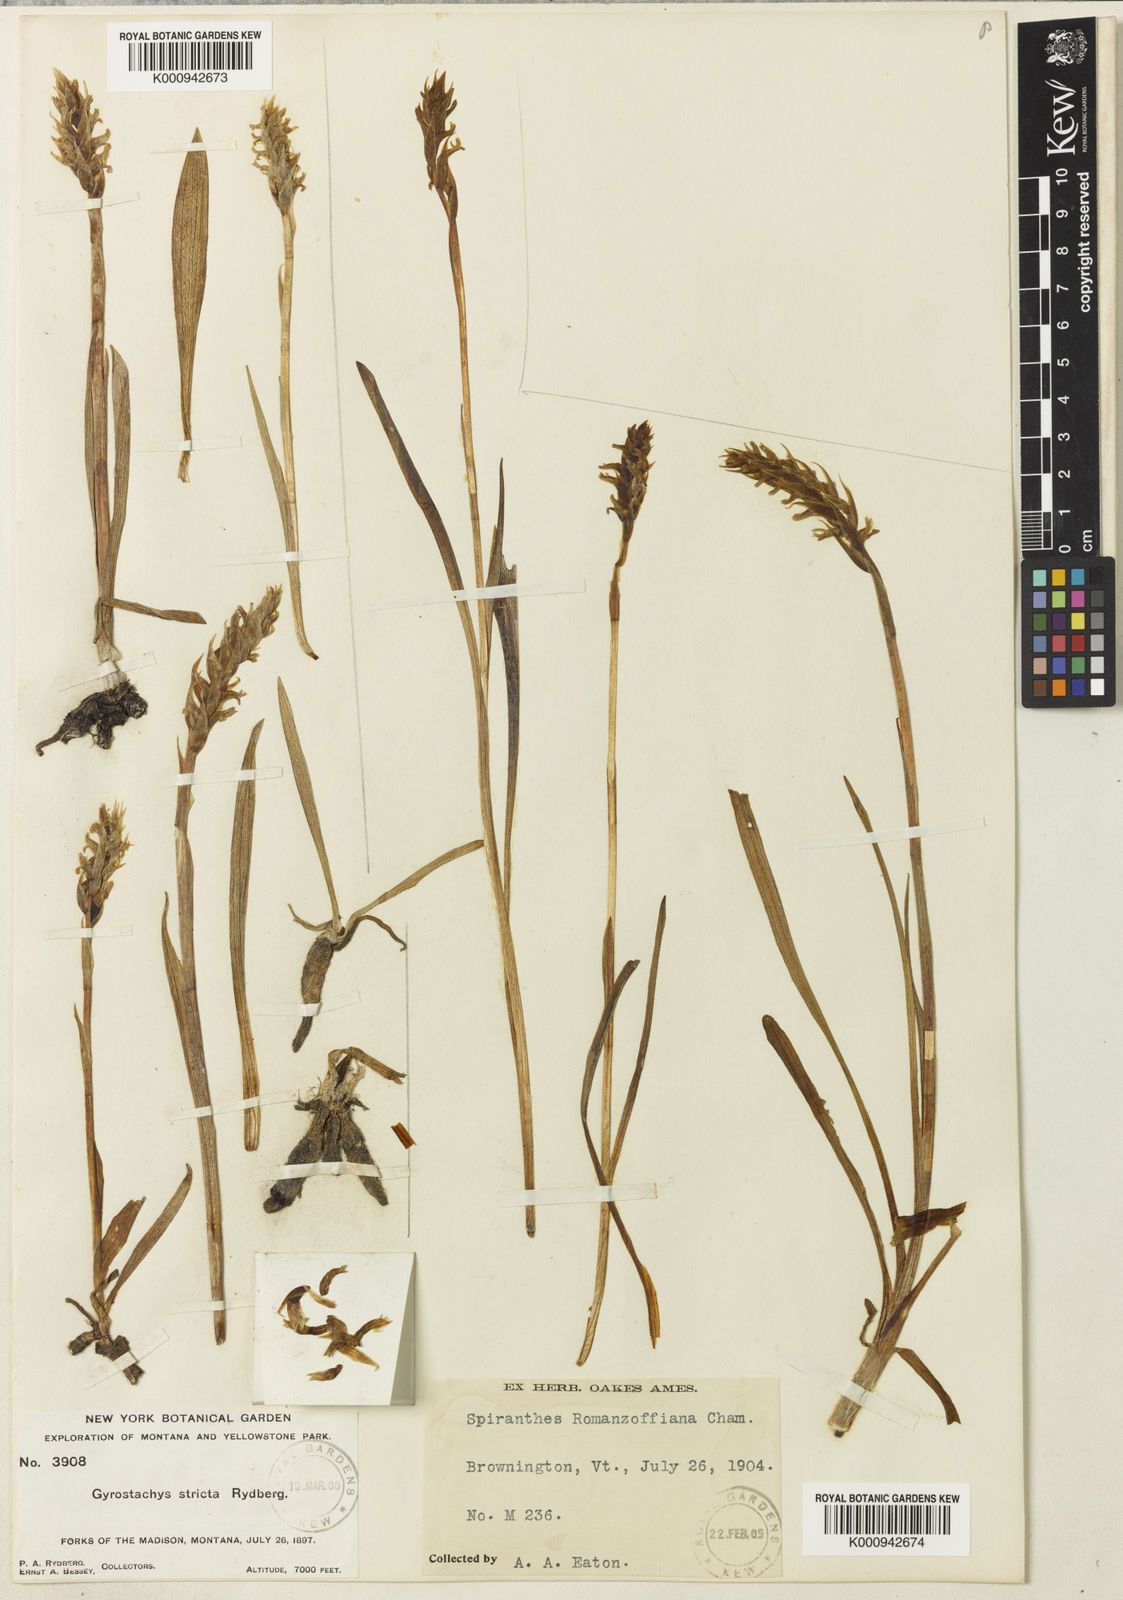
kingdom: Plantae
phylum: Tracheophyta
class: Liliopsida
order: Asparagales
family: Orchidaceae
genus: Spiranthes
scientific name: Spiranthes romanzoffiana
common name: Irish lady's-tresses
